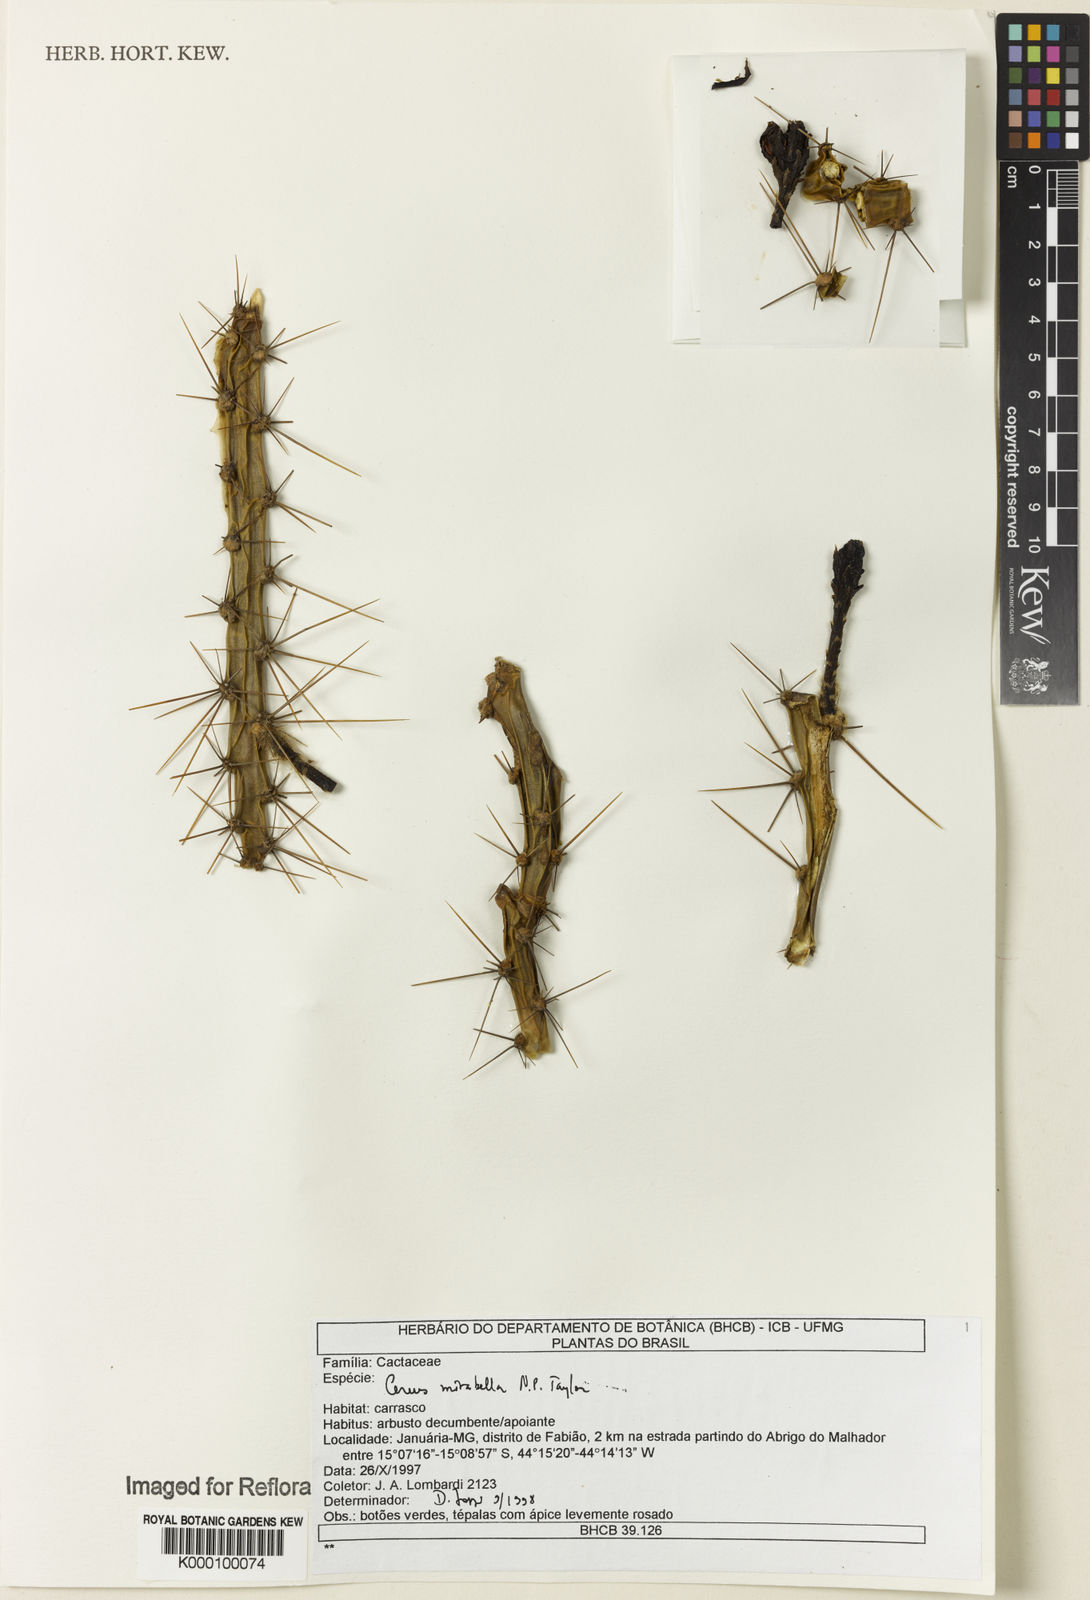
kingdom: Plantae
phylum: Tracheophyta
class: Magnoliopsida
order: Caryophyllales
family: Cactaceae
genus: Cereus
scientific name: Cereus mirabella
